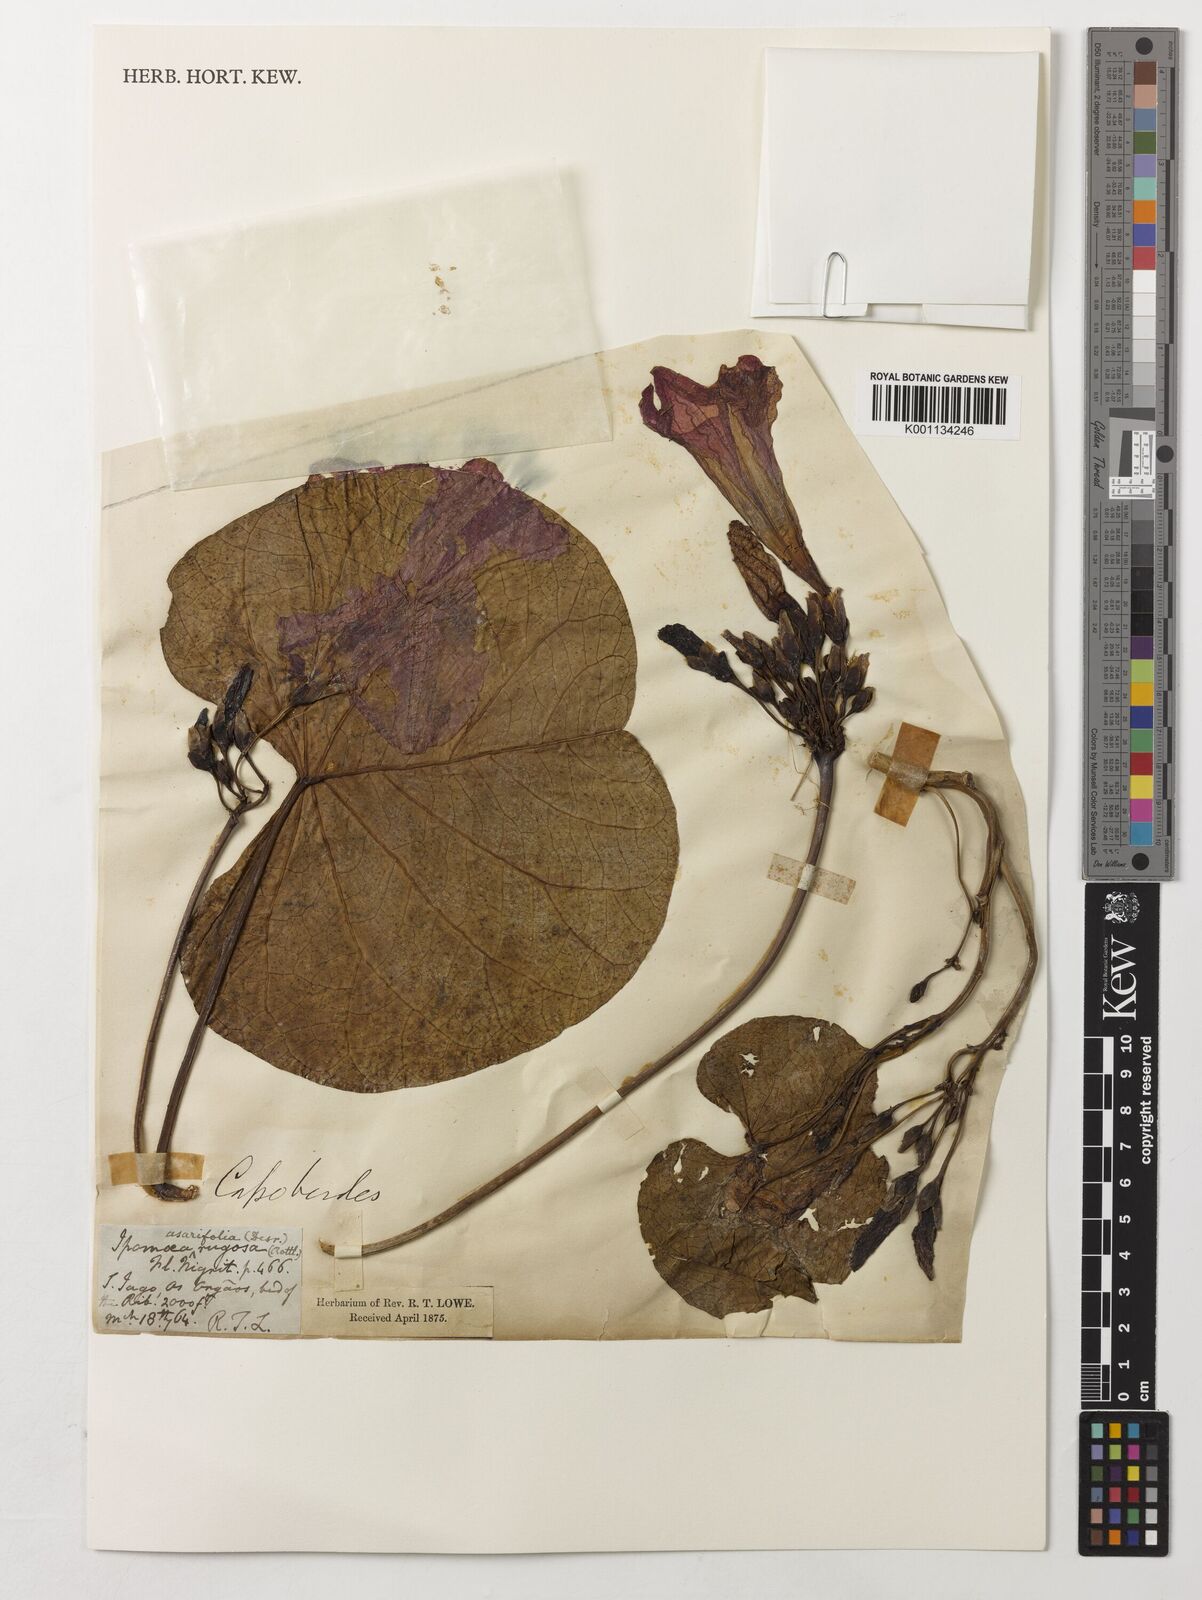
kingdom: Plantae
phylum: Tracheophyta
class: Magnoliopsida
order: Solanales
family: Convolvulaceae
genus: Ipomoea
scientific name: Ipomoea asarifolia
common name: Ginger-leaf morning-glory
